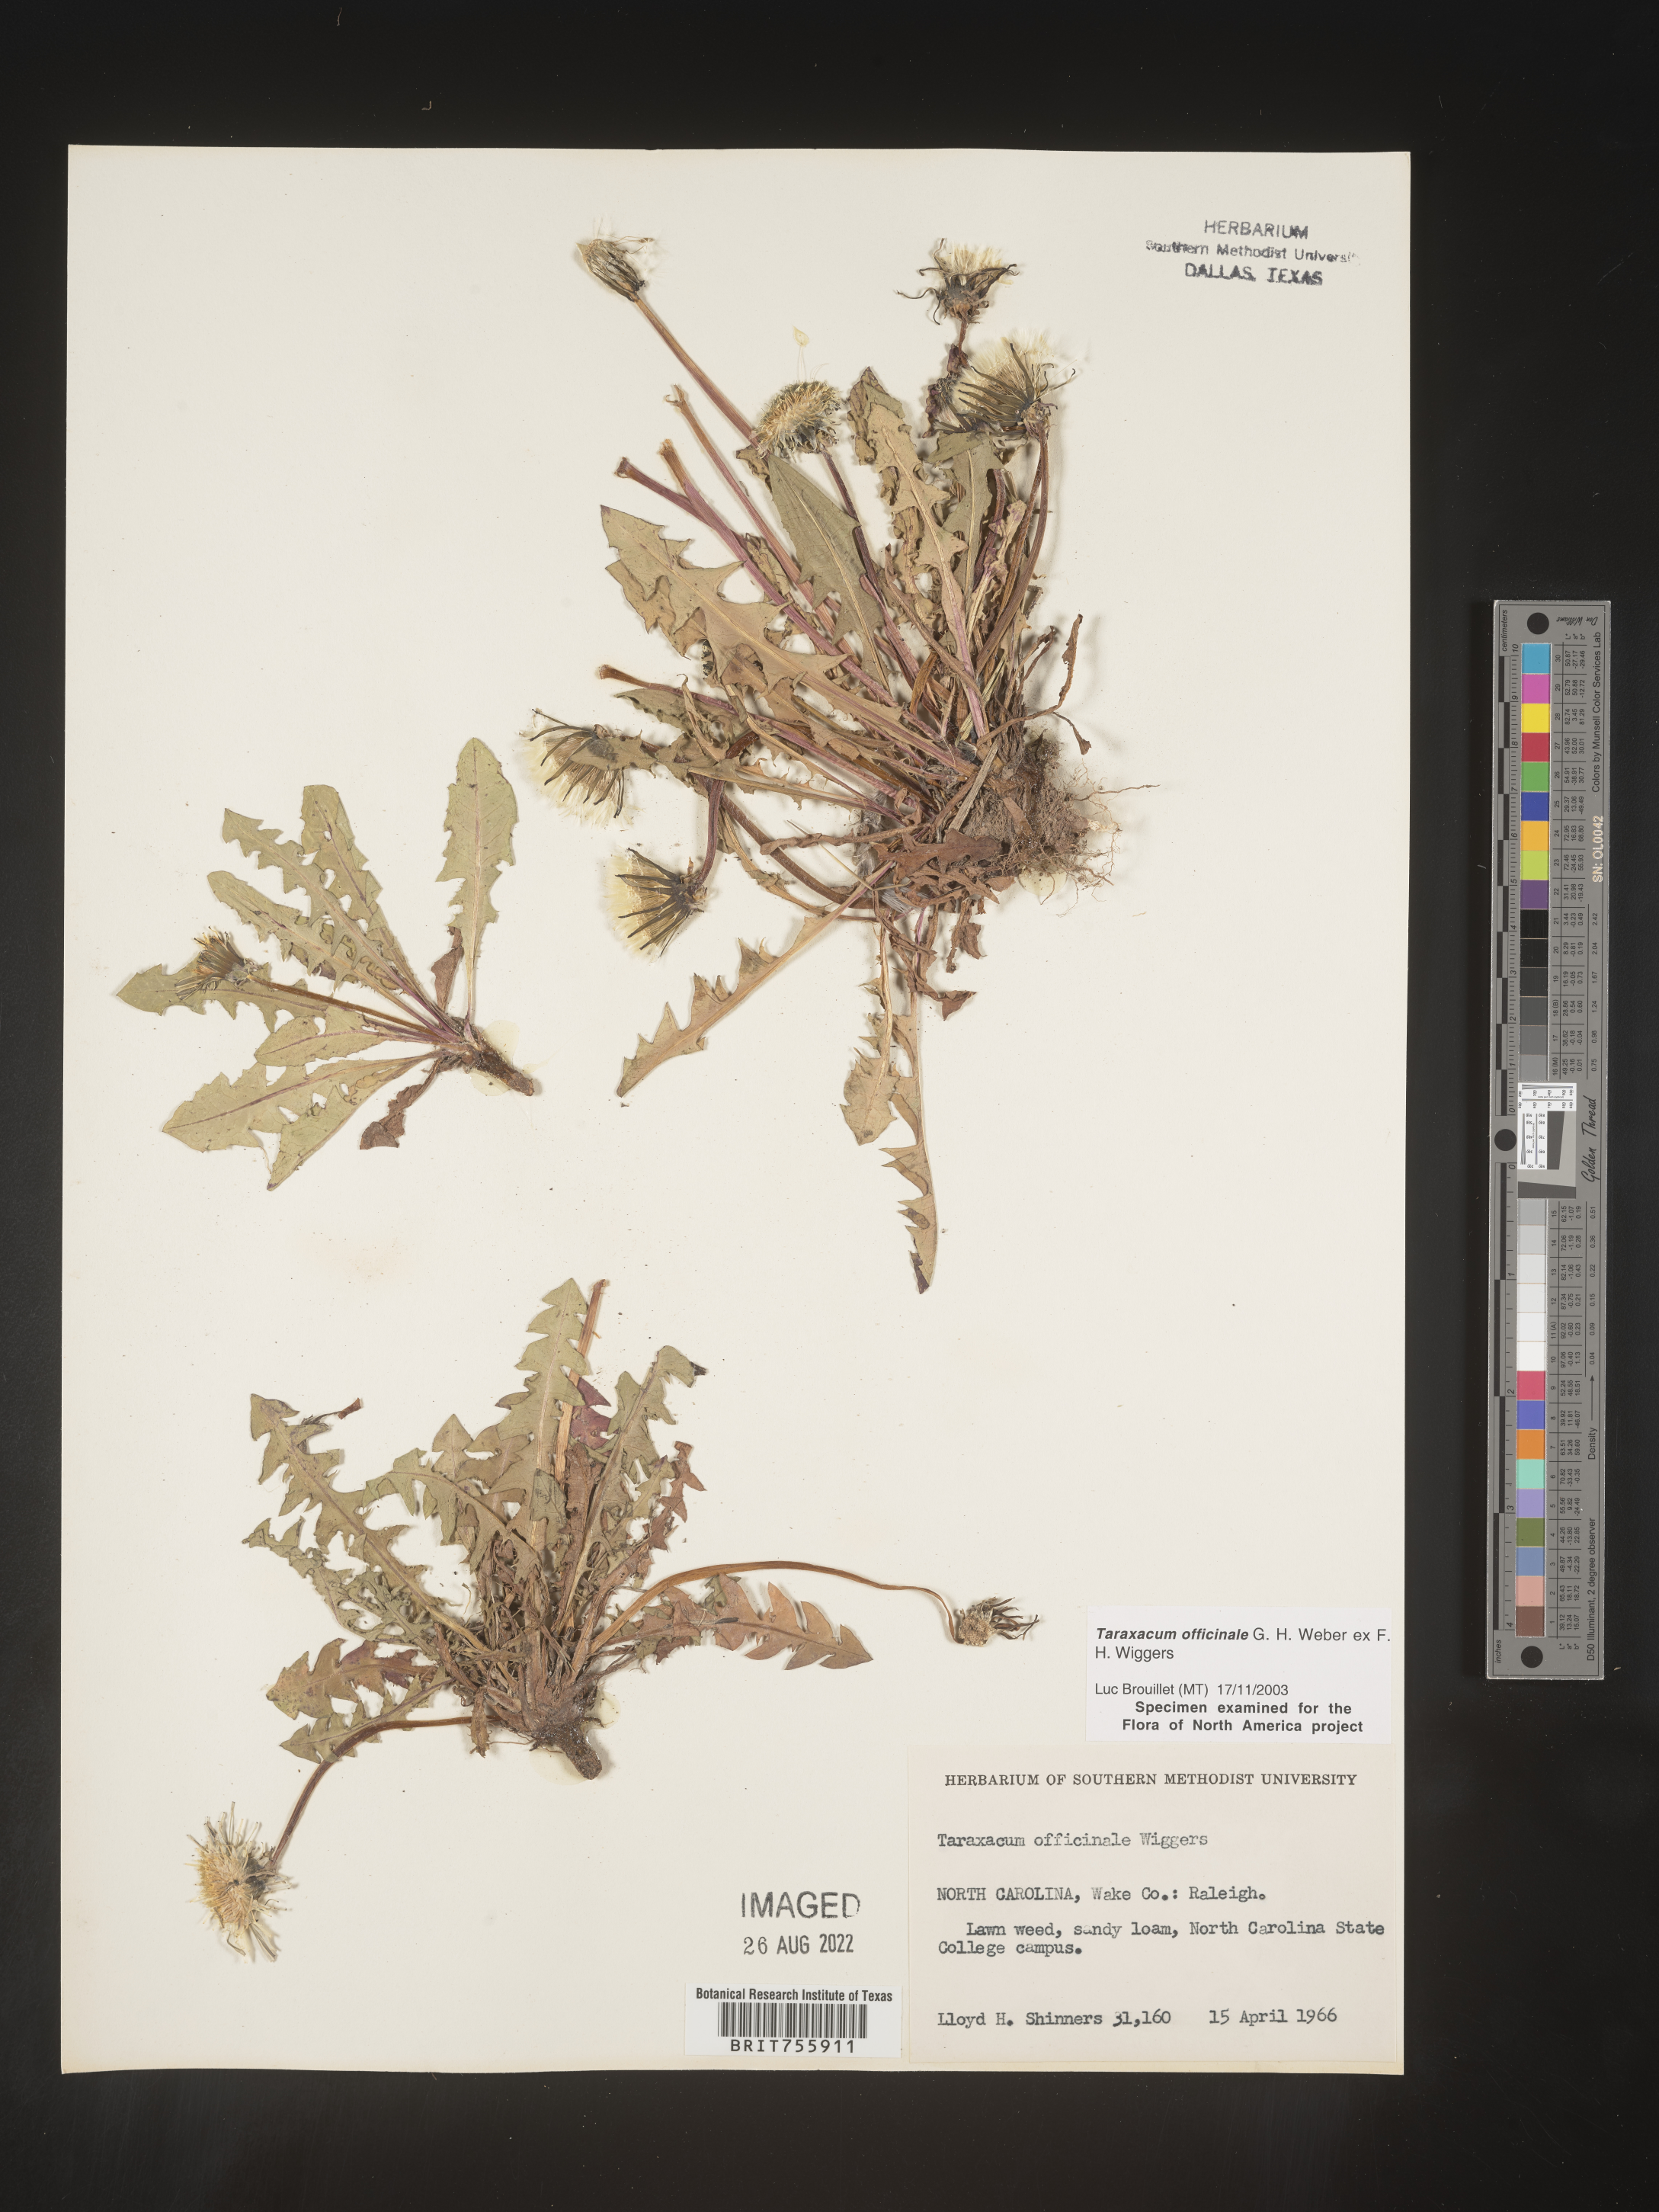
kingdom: Plantae
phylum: Tracheophyta
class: Magnoliopsida
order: Asterales
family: Asteraceae
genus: Taraxacum
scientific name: Taraxacum officinale
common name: Common dandelion
